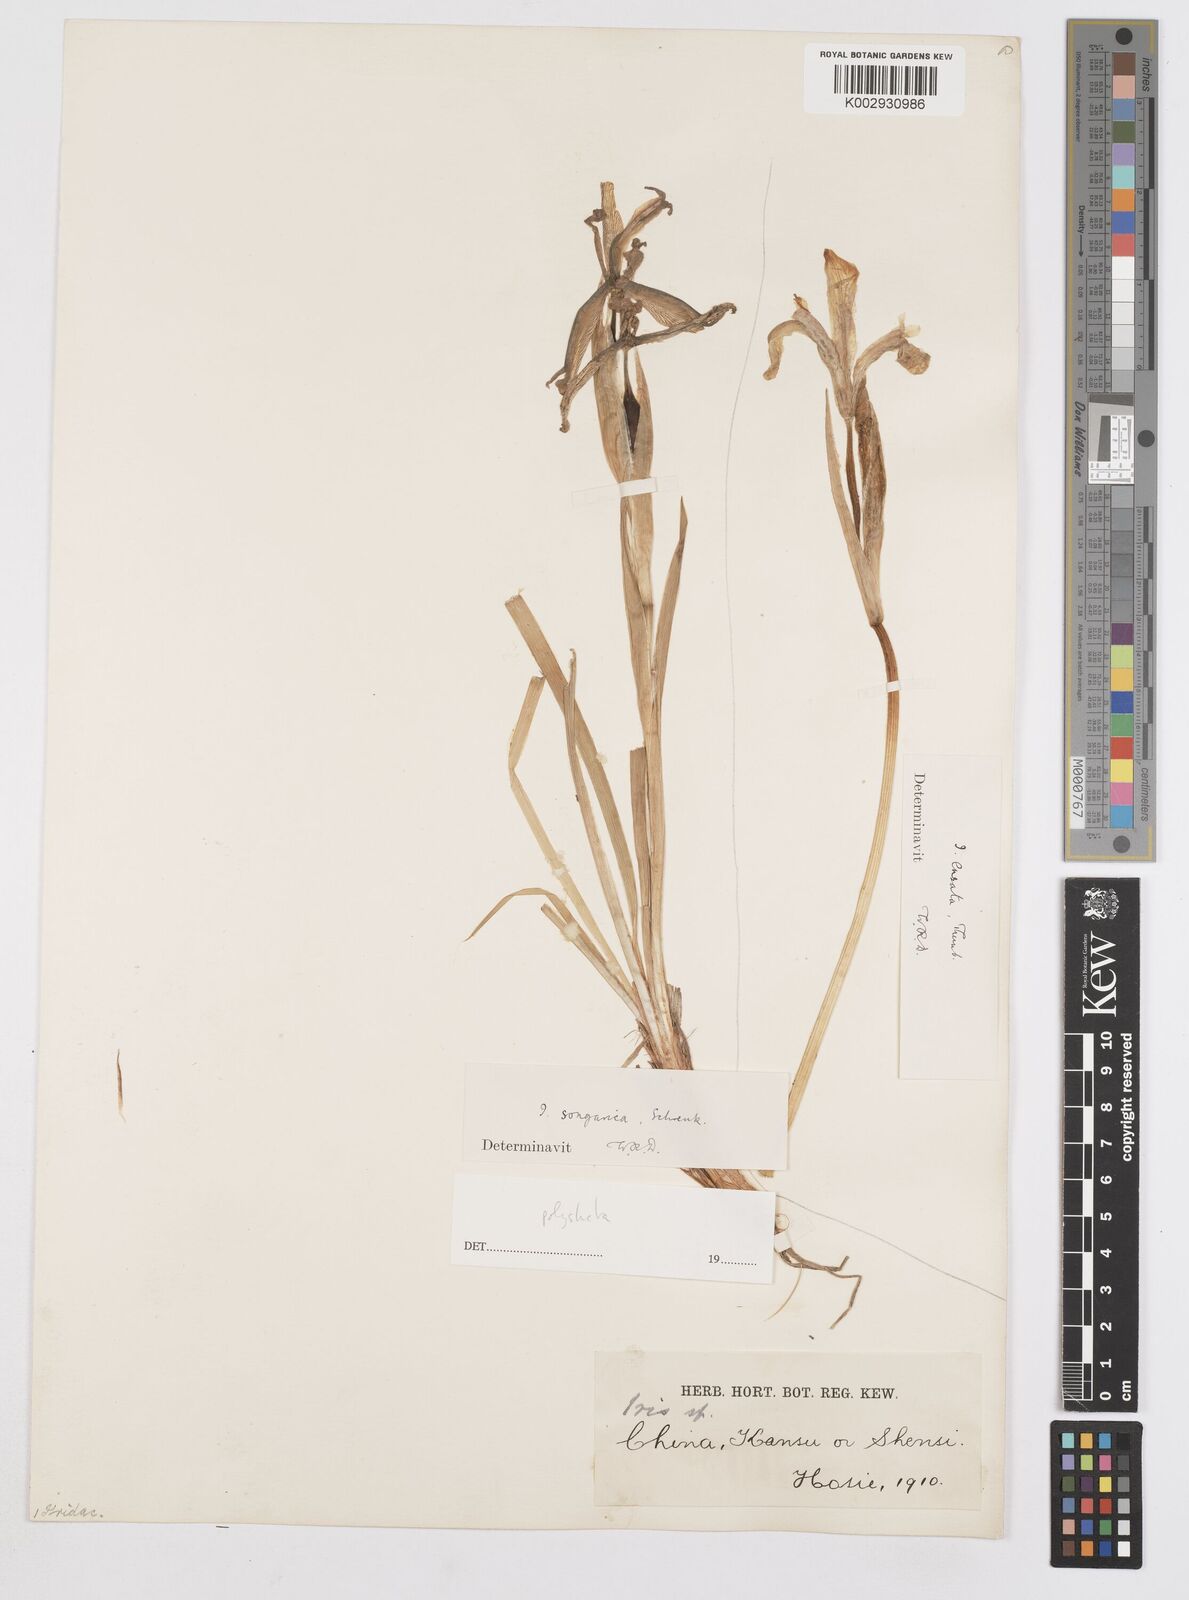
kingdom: Plantae
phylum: Tracheophyta
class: Liliopsida
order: Asparagales
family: Iridaceae
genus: Iris
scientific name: Iris farreri
